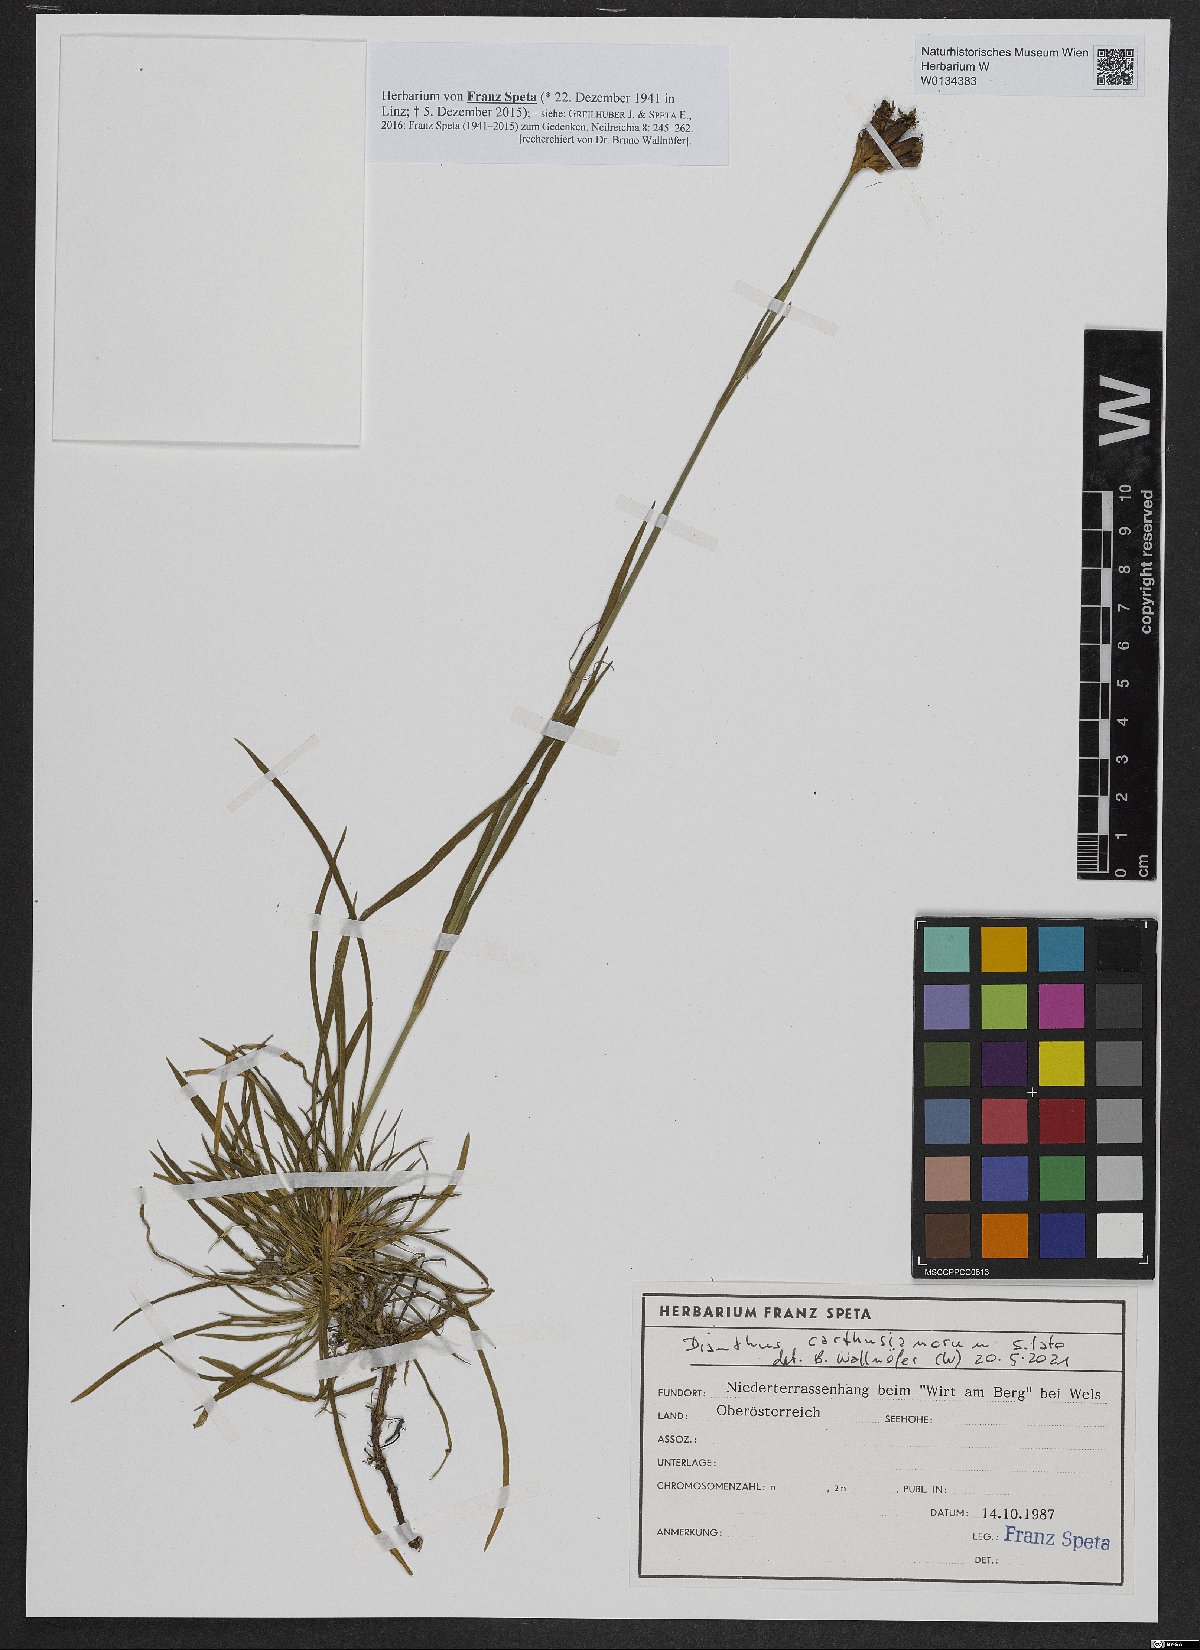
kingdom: Plantae
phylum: Tracheophyta
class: Magnoliopsida
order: Caryophyllales
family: Caryophyllaceae
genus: Dianthus
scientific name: Dianthus carthusianorum
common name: Carthusian pink
